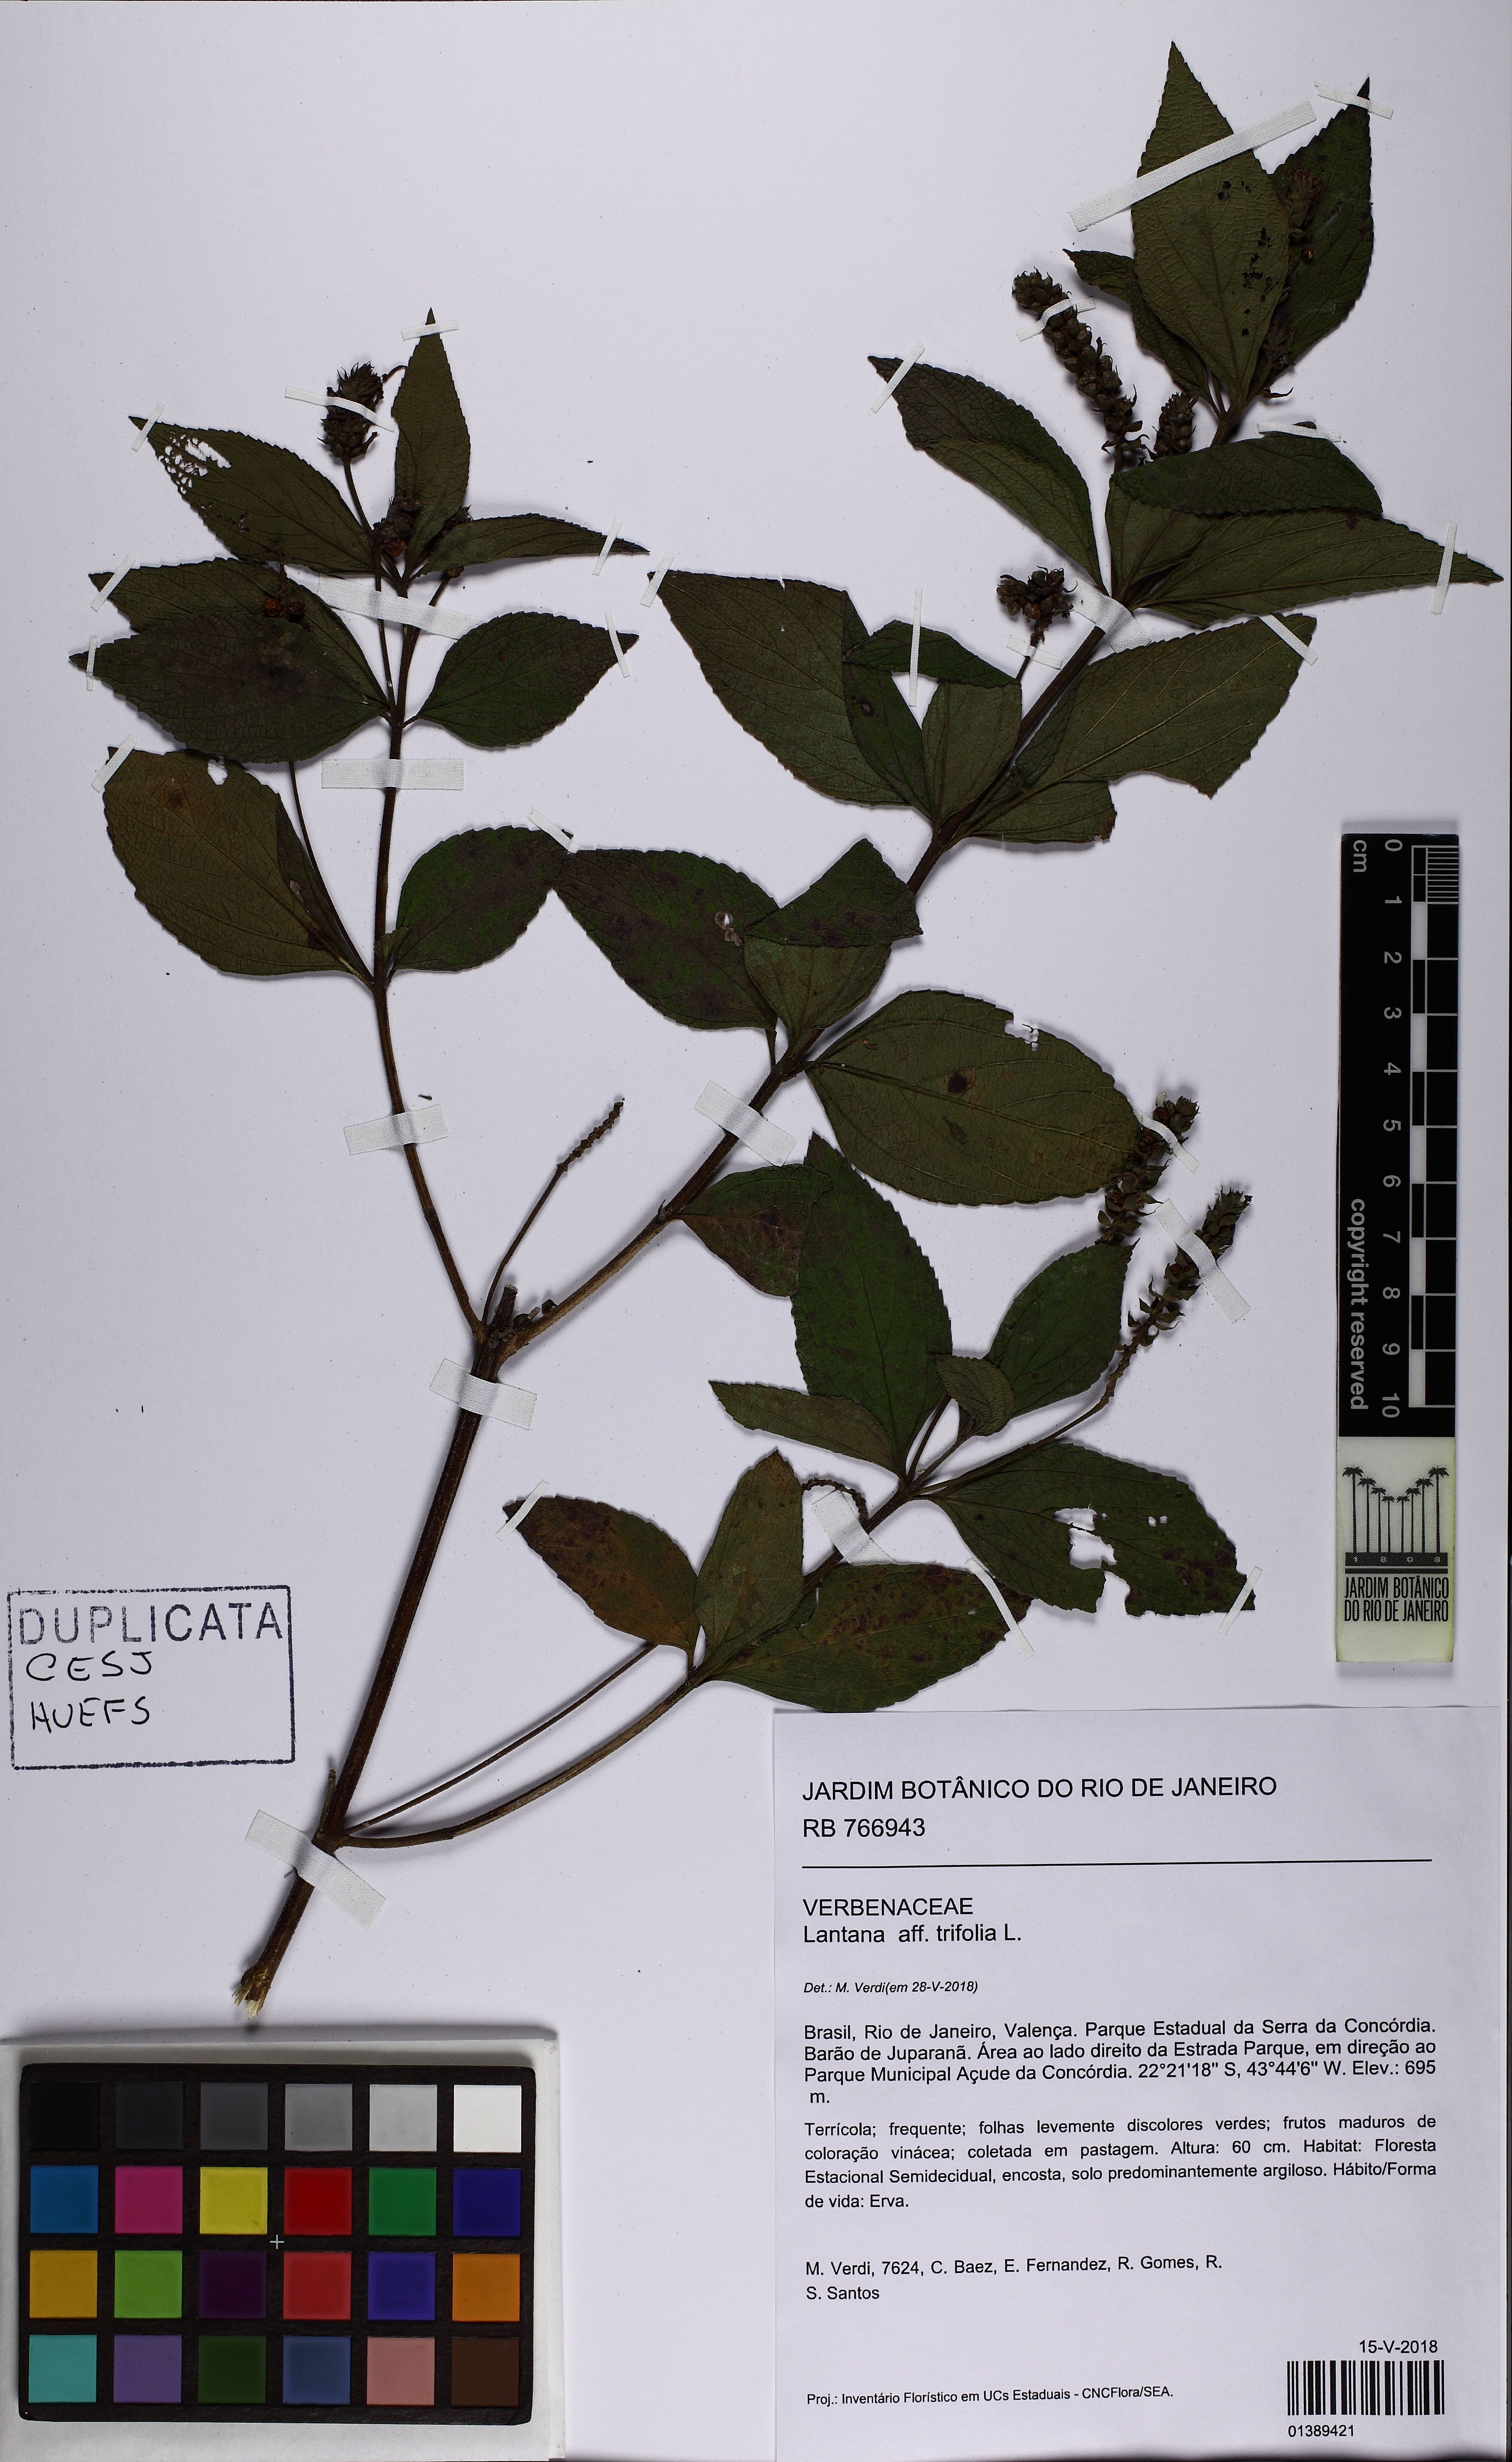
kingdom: Plantae
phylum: Tracheophyta
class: Magnoliopsida
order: Lamiales
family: Verbenaceae
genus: Lantana
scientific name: Lantana trifolia
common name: Sweet-sage
